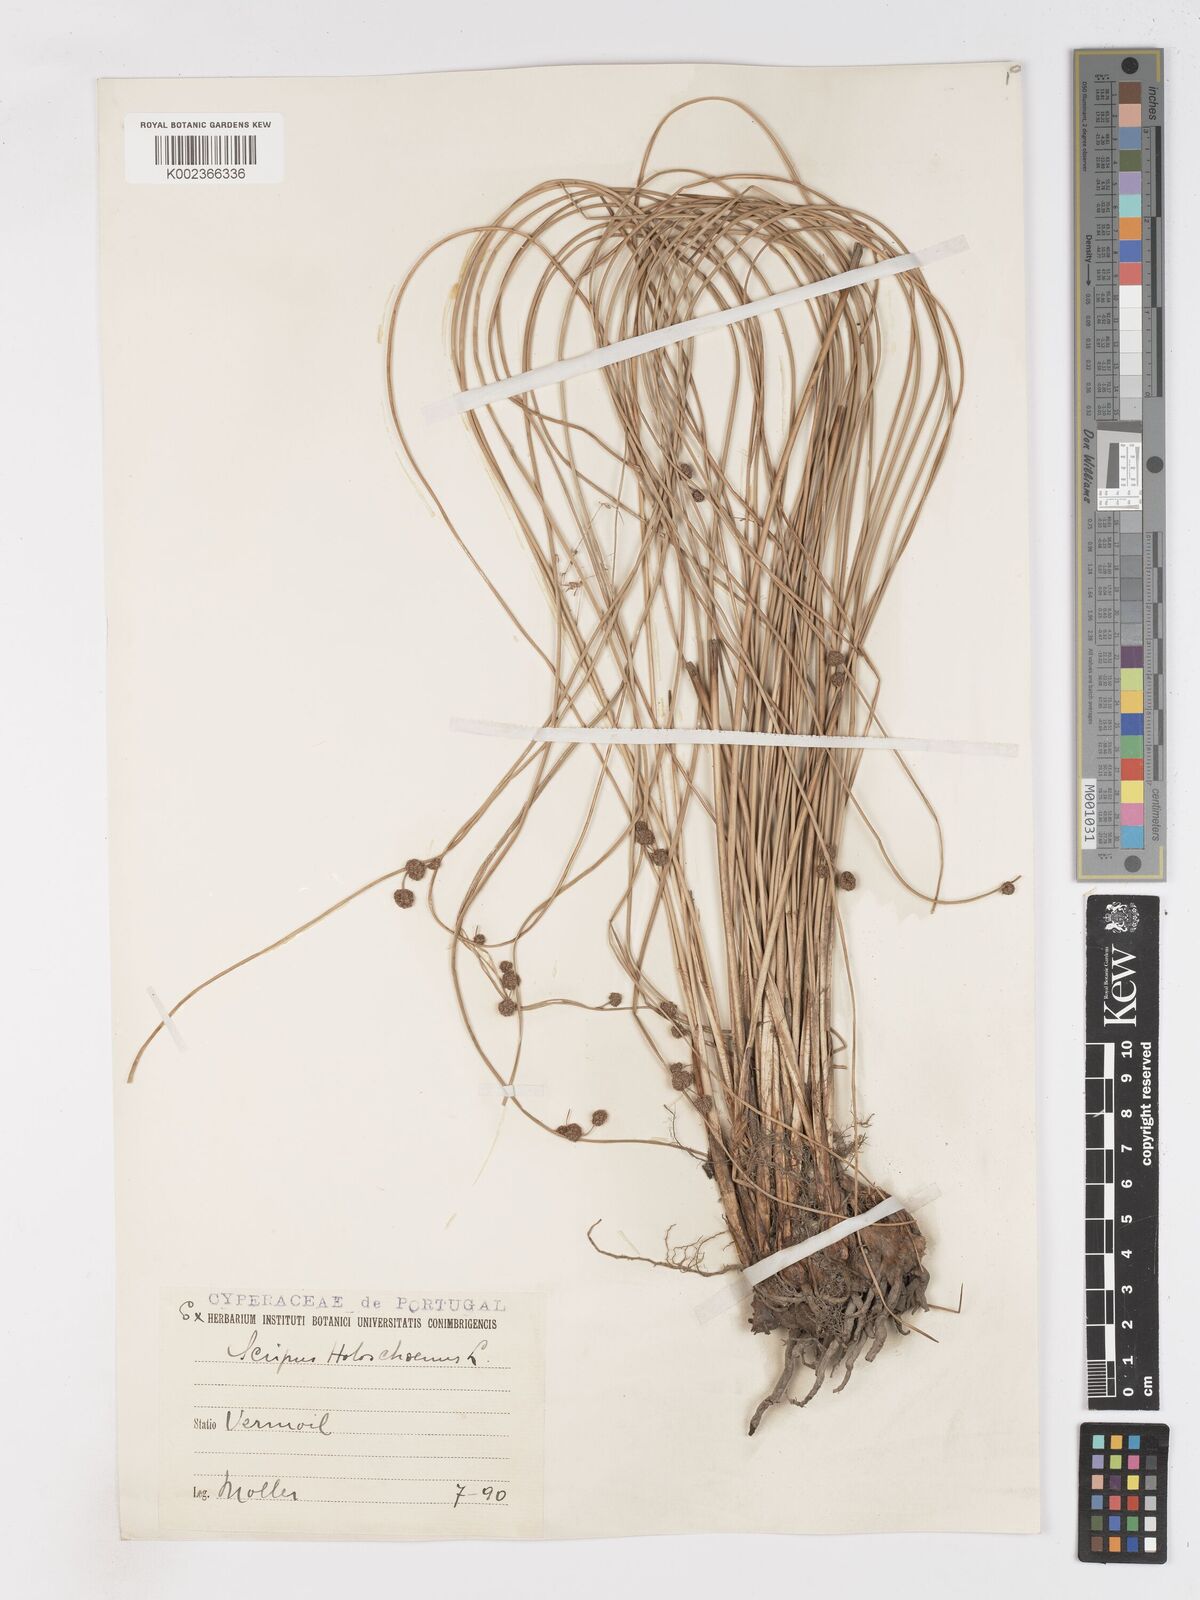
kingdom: Plantae
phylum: Tracheophyta
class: Liliopsida
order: Poales
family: Cyperaceae
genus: Scirpoides
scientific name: Scirpoides holoschoenus
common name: Round-headed club-rush
